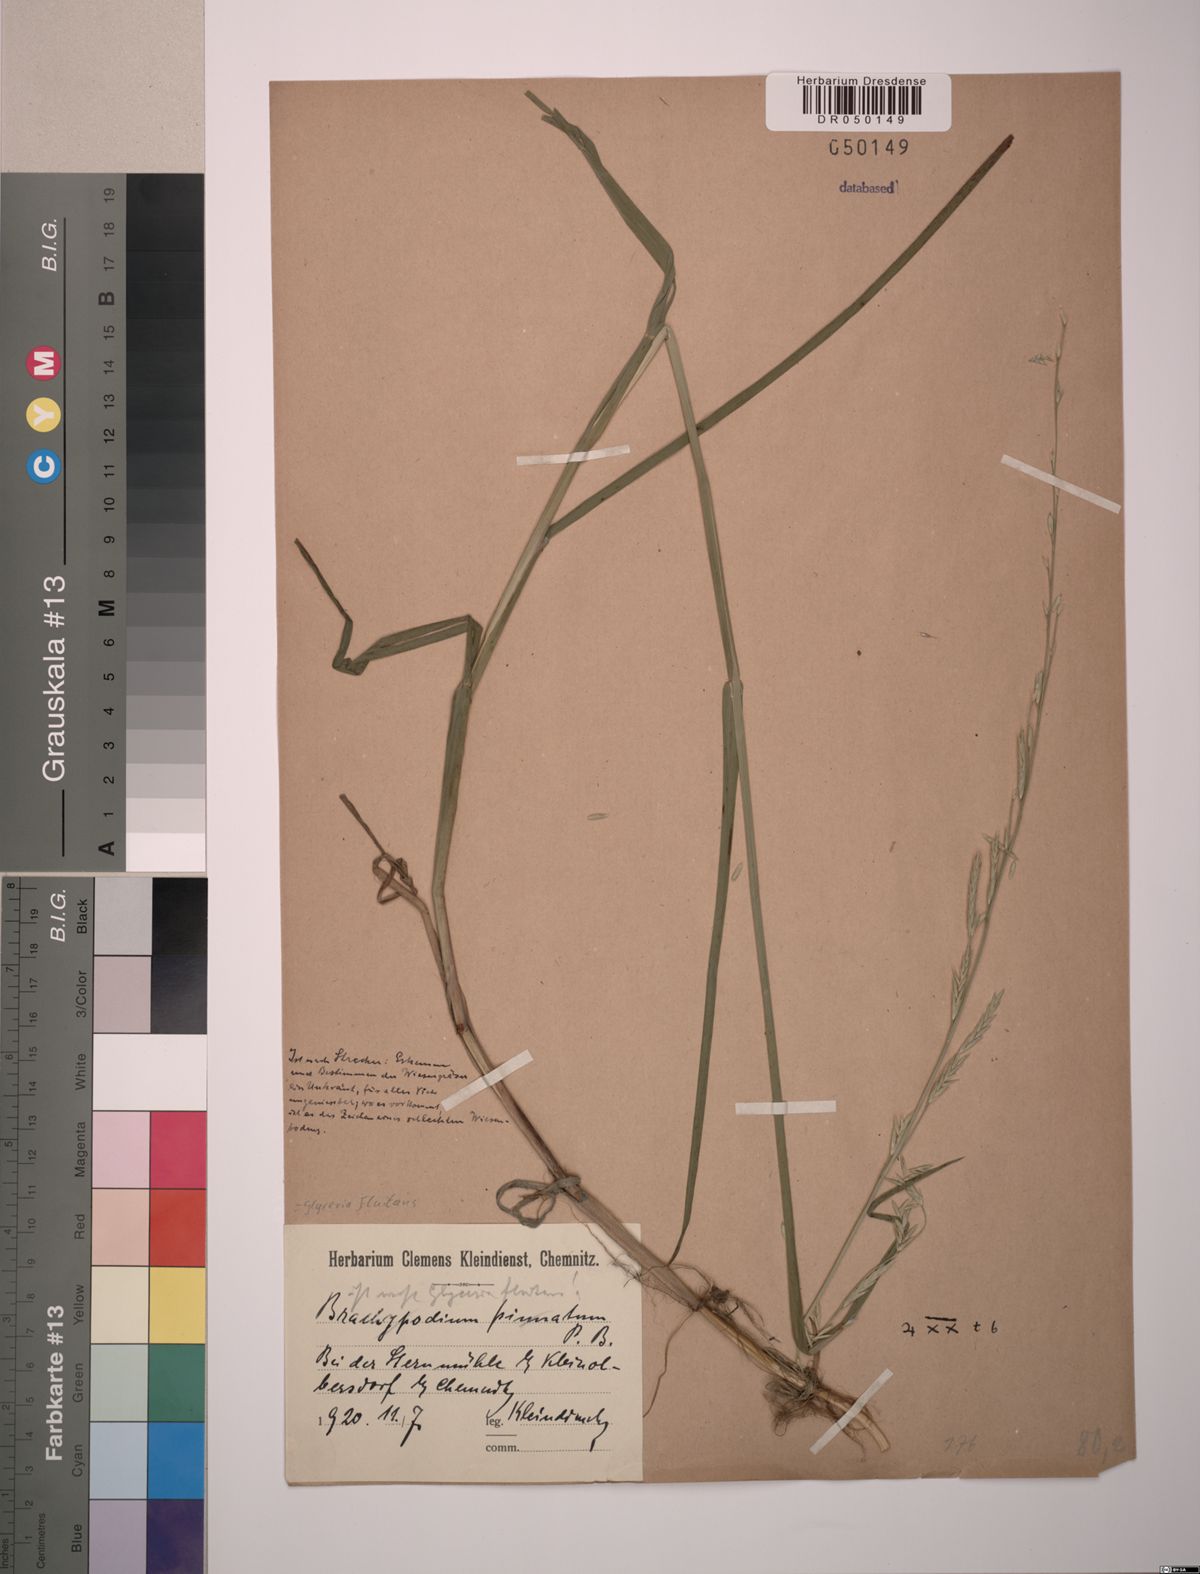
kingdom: Plantae
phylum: Tracheophyta
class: Liliopsida
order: Poales
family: Poaceae
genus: Glyceria
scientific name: Glyceria fluitans
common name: Floating sweet-grass
